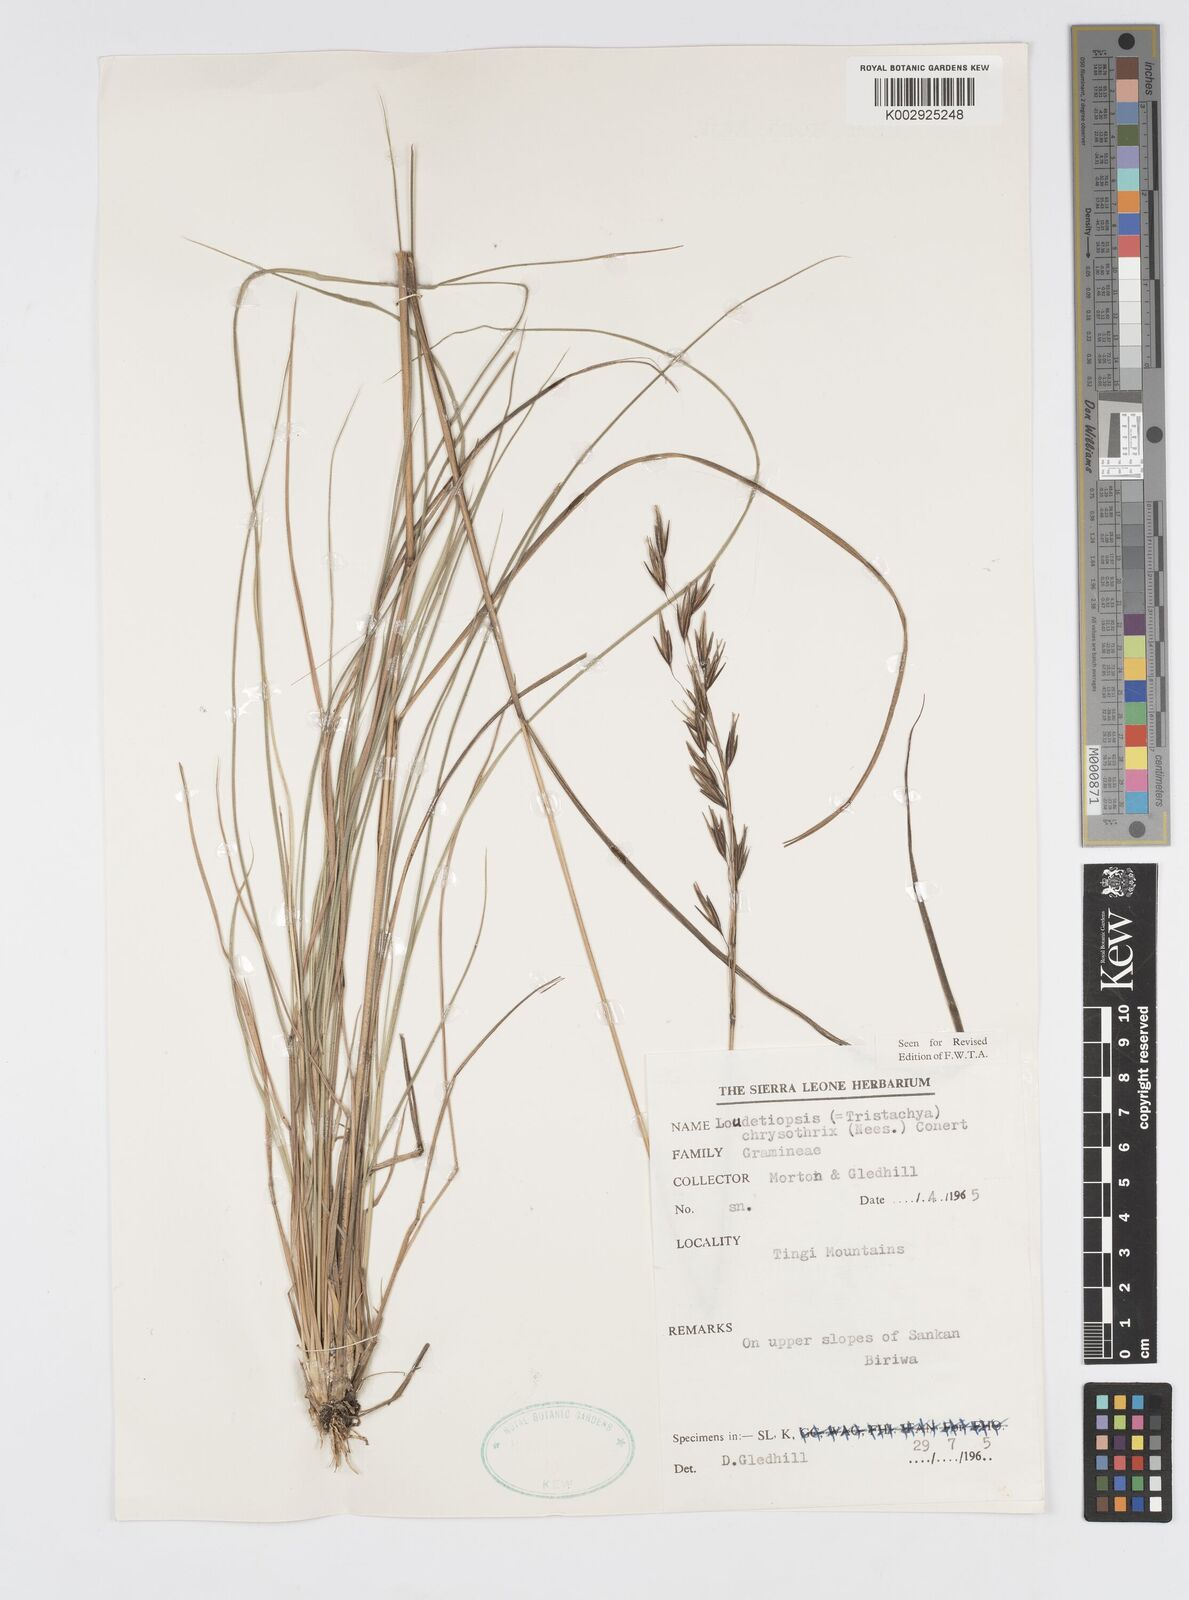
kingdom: Plantae
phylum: Tracheophyta
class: Liliopsida
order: Poales
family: Poaceae
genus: Loudetiopsis
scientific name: Loudetiopsis chrysothrix
